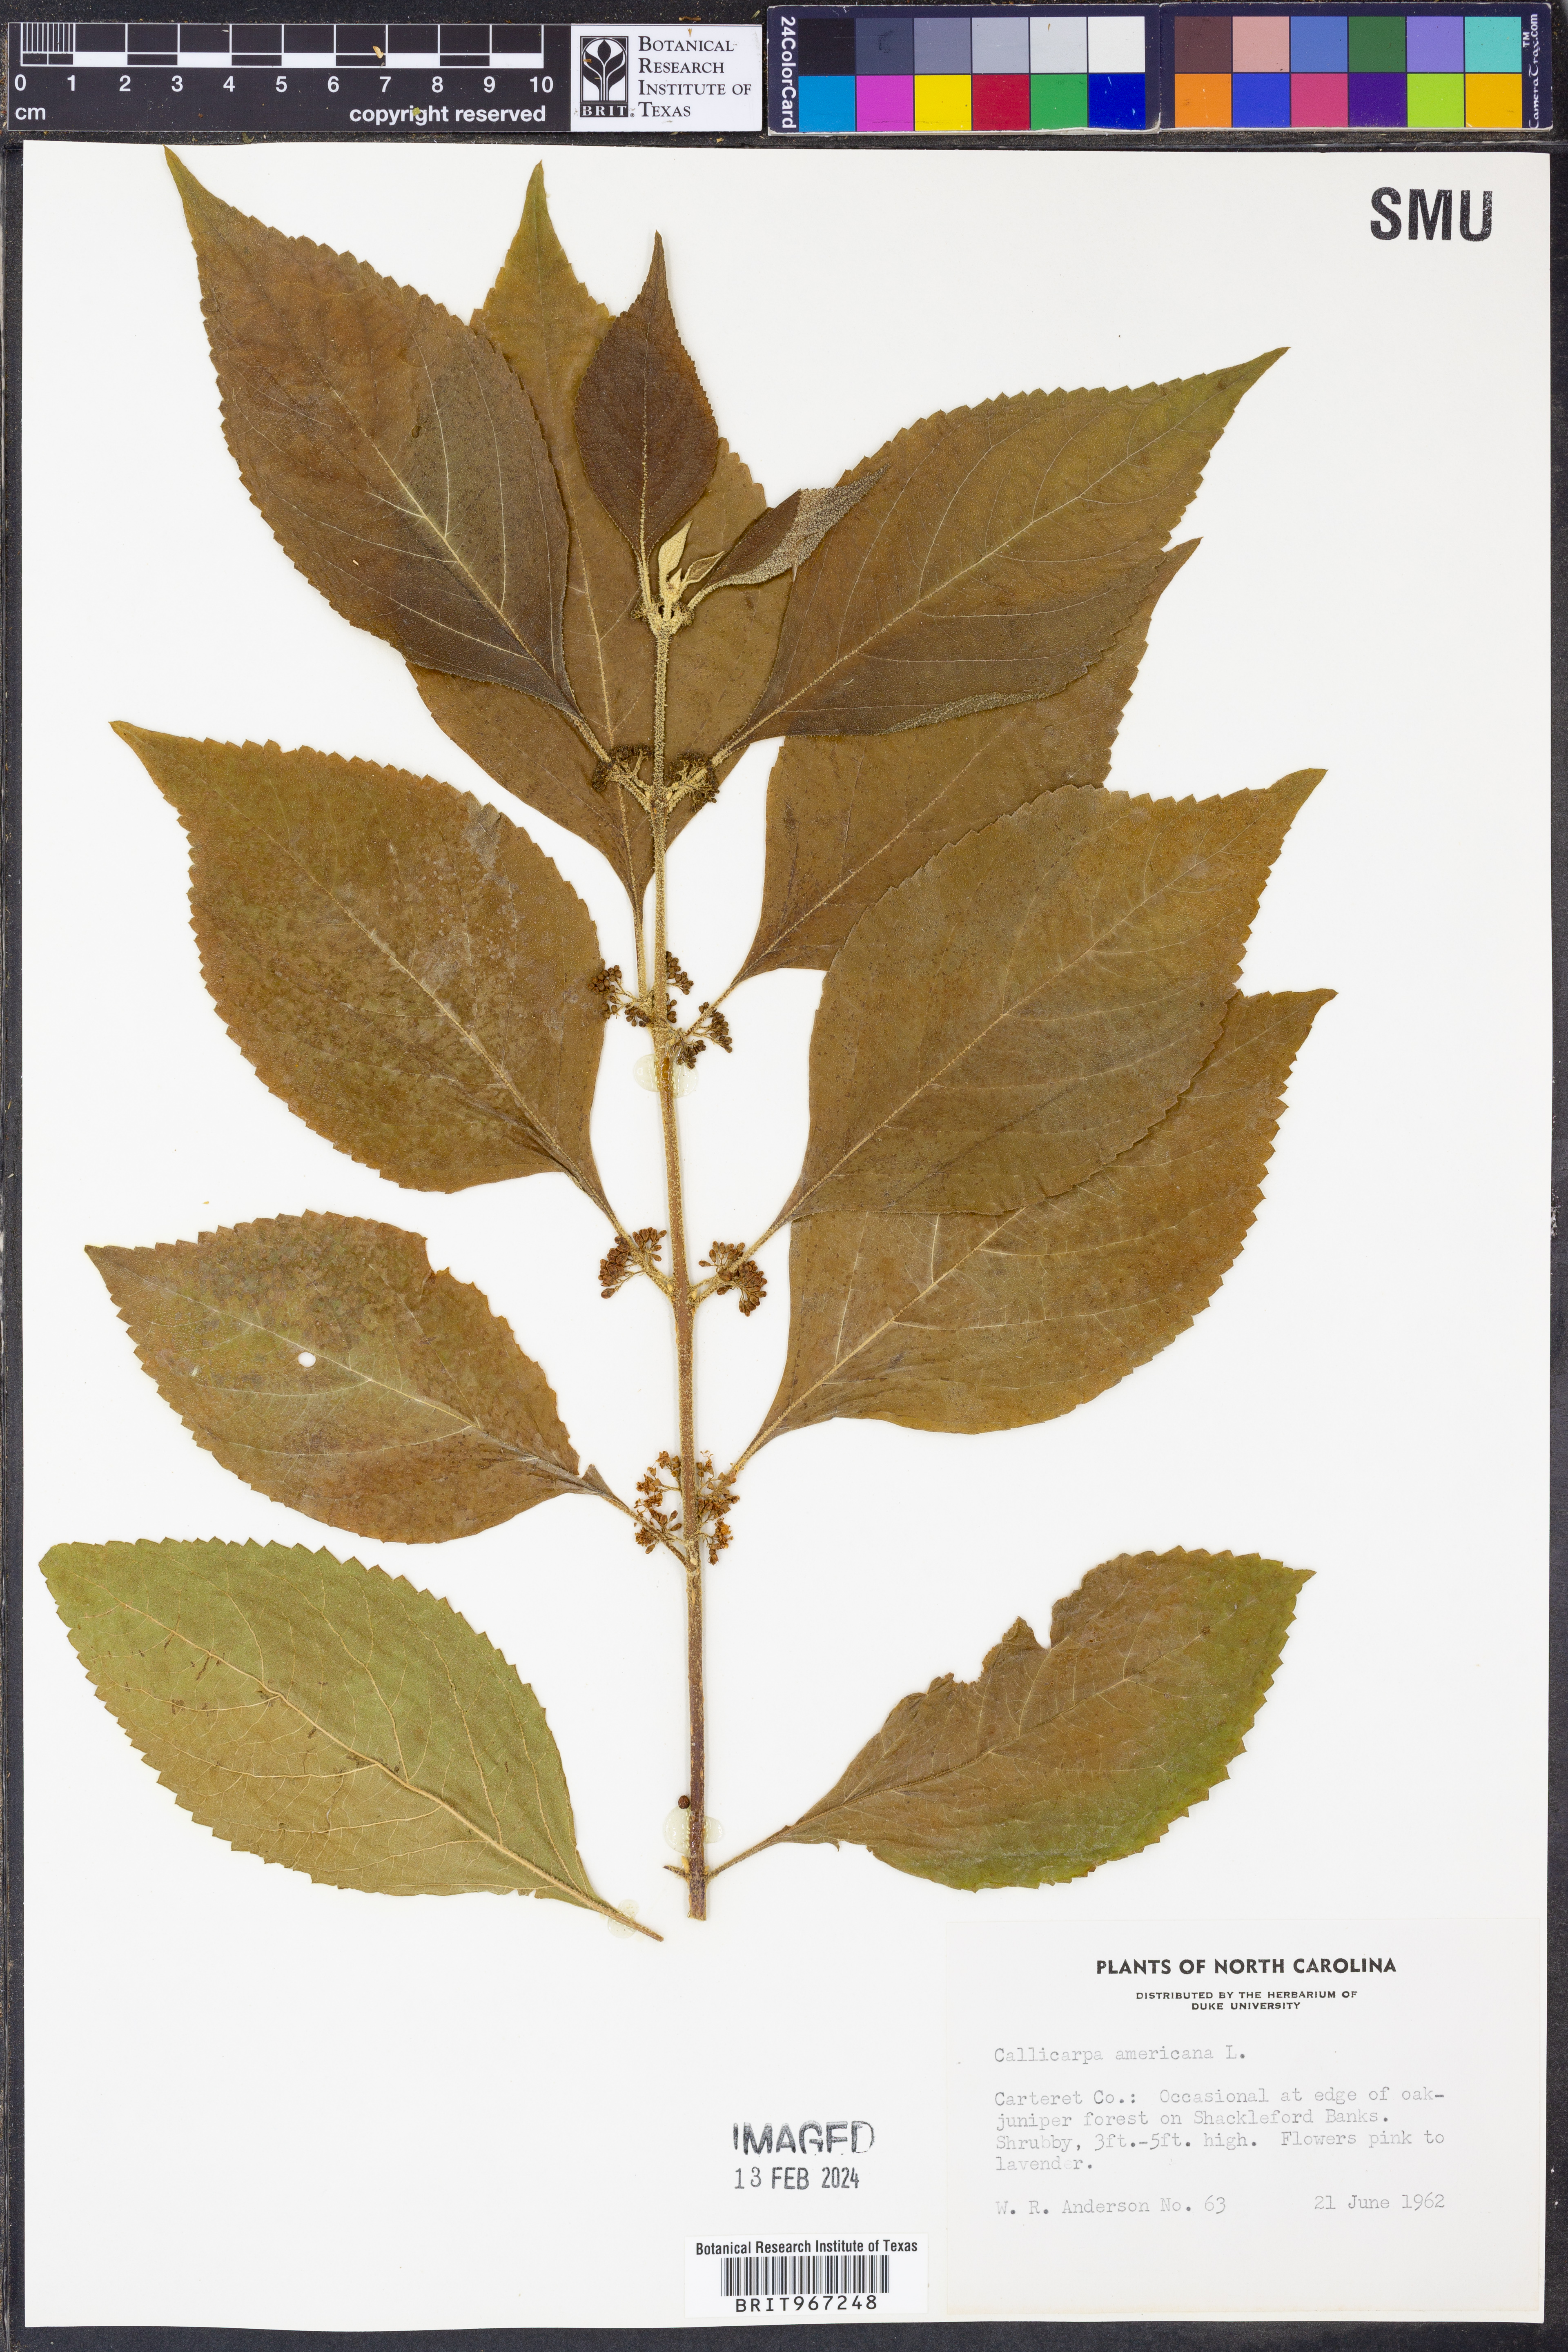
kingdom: Plantae
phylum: Tracheophyta
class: Magnoliopsida
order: Lamiales
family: Lamiaceae
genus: Callicarpa
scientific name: Callicarpa americana
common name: American beautyberry
